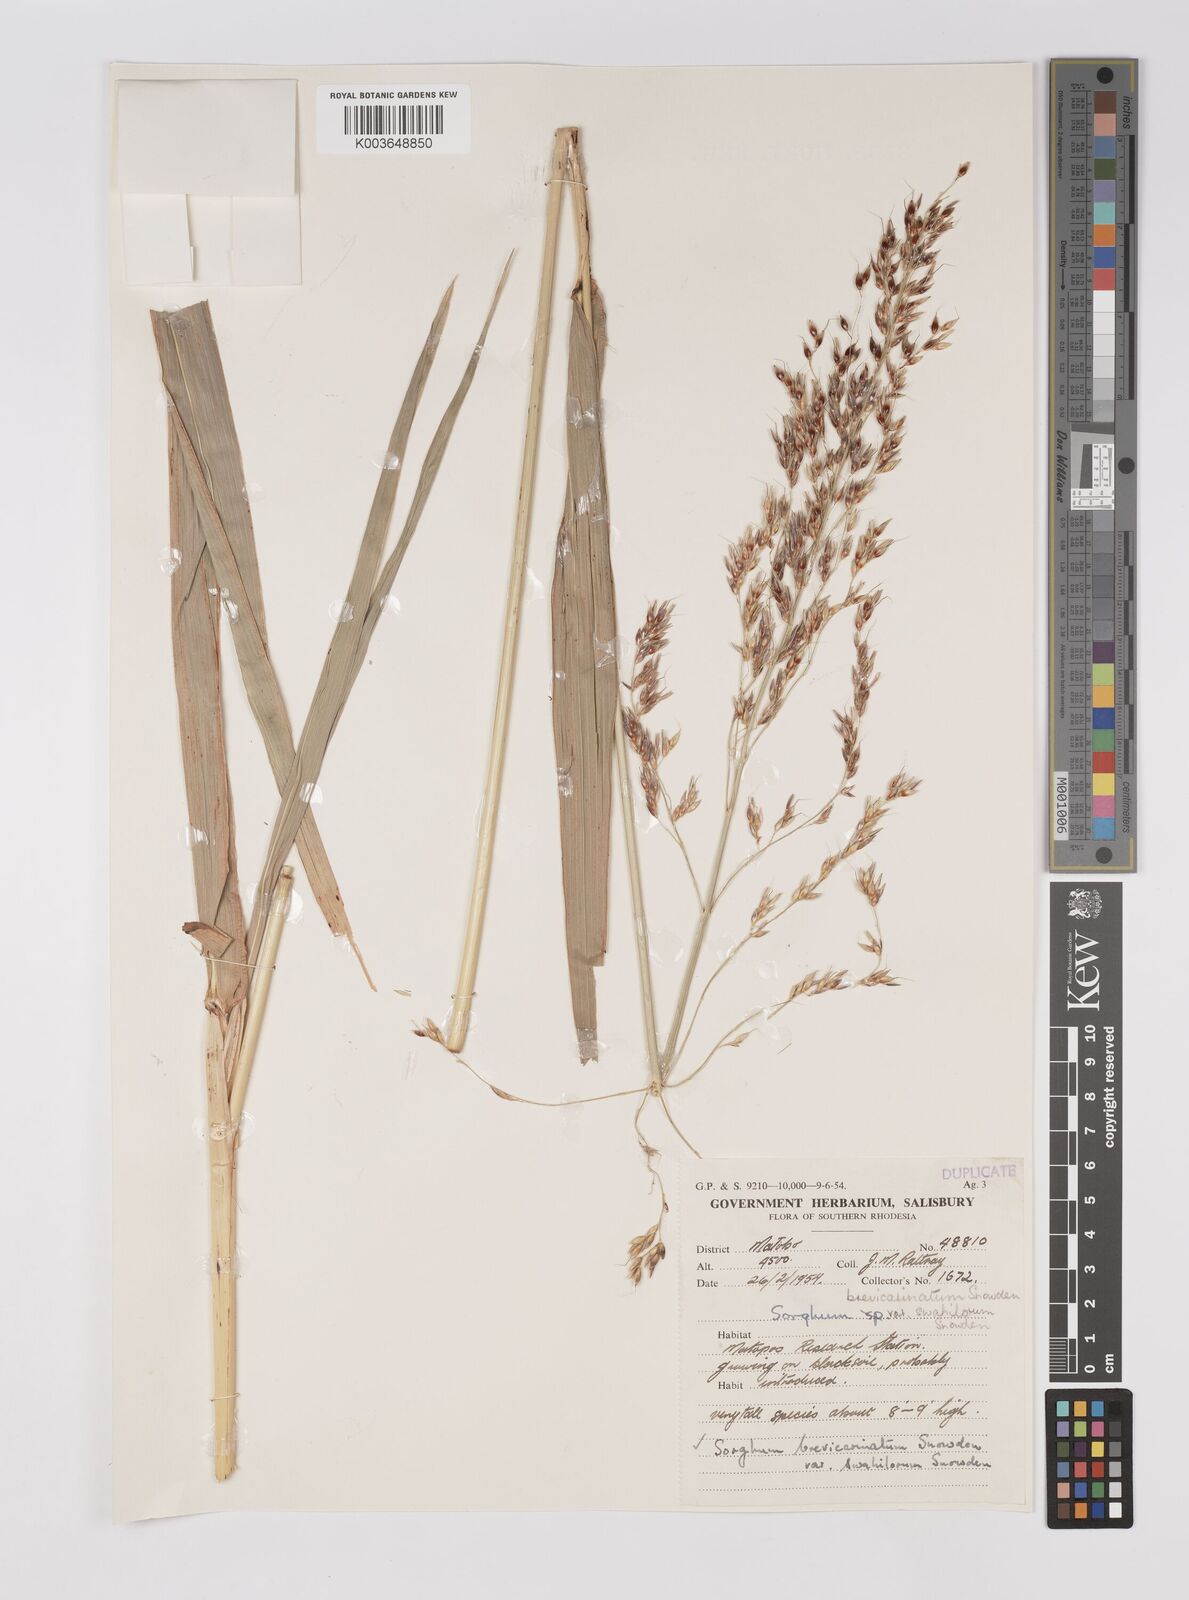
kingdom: Plantae
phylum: Tracheophyta
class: Liliopsida
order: Poales
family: Poaceae
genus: Sorghum
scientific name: Sorghum arundinaceum
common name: Sorghum
